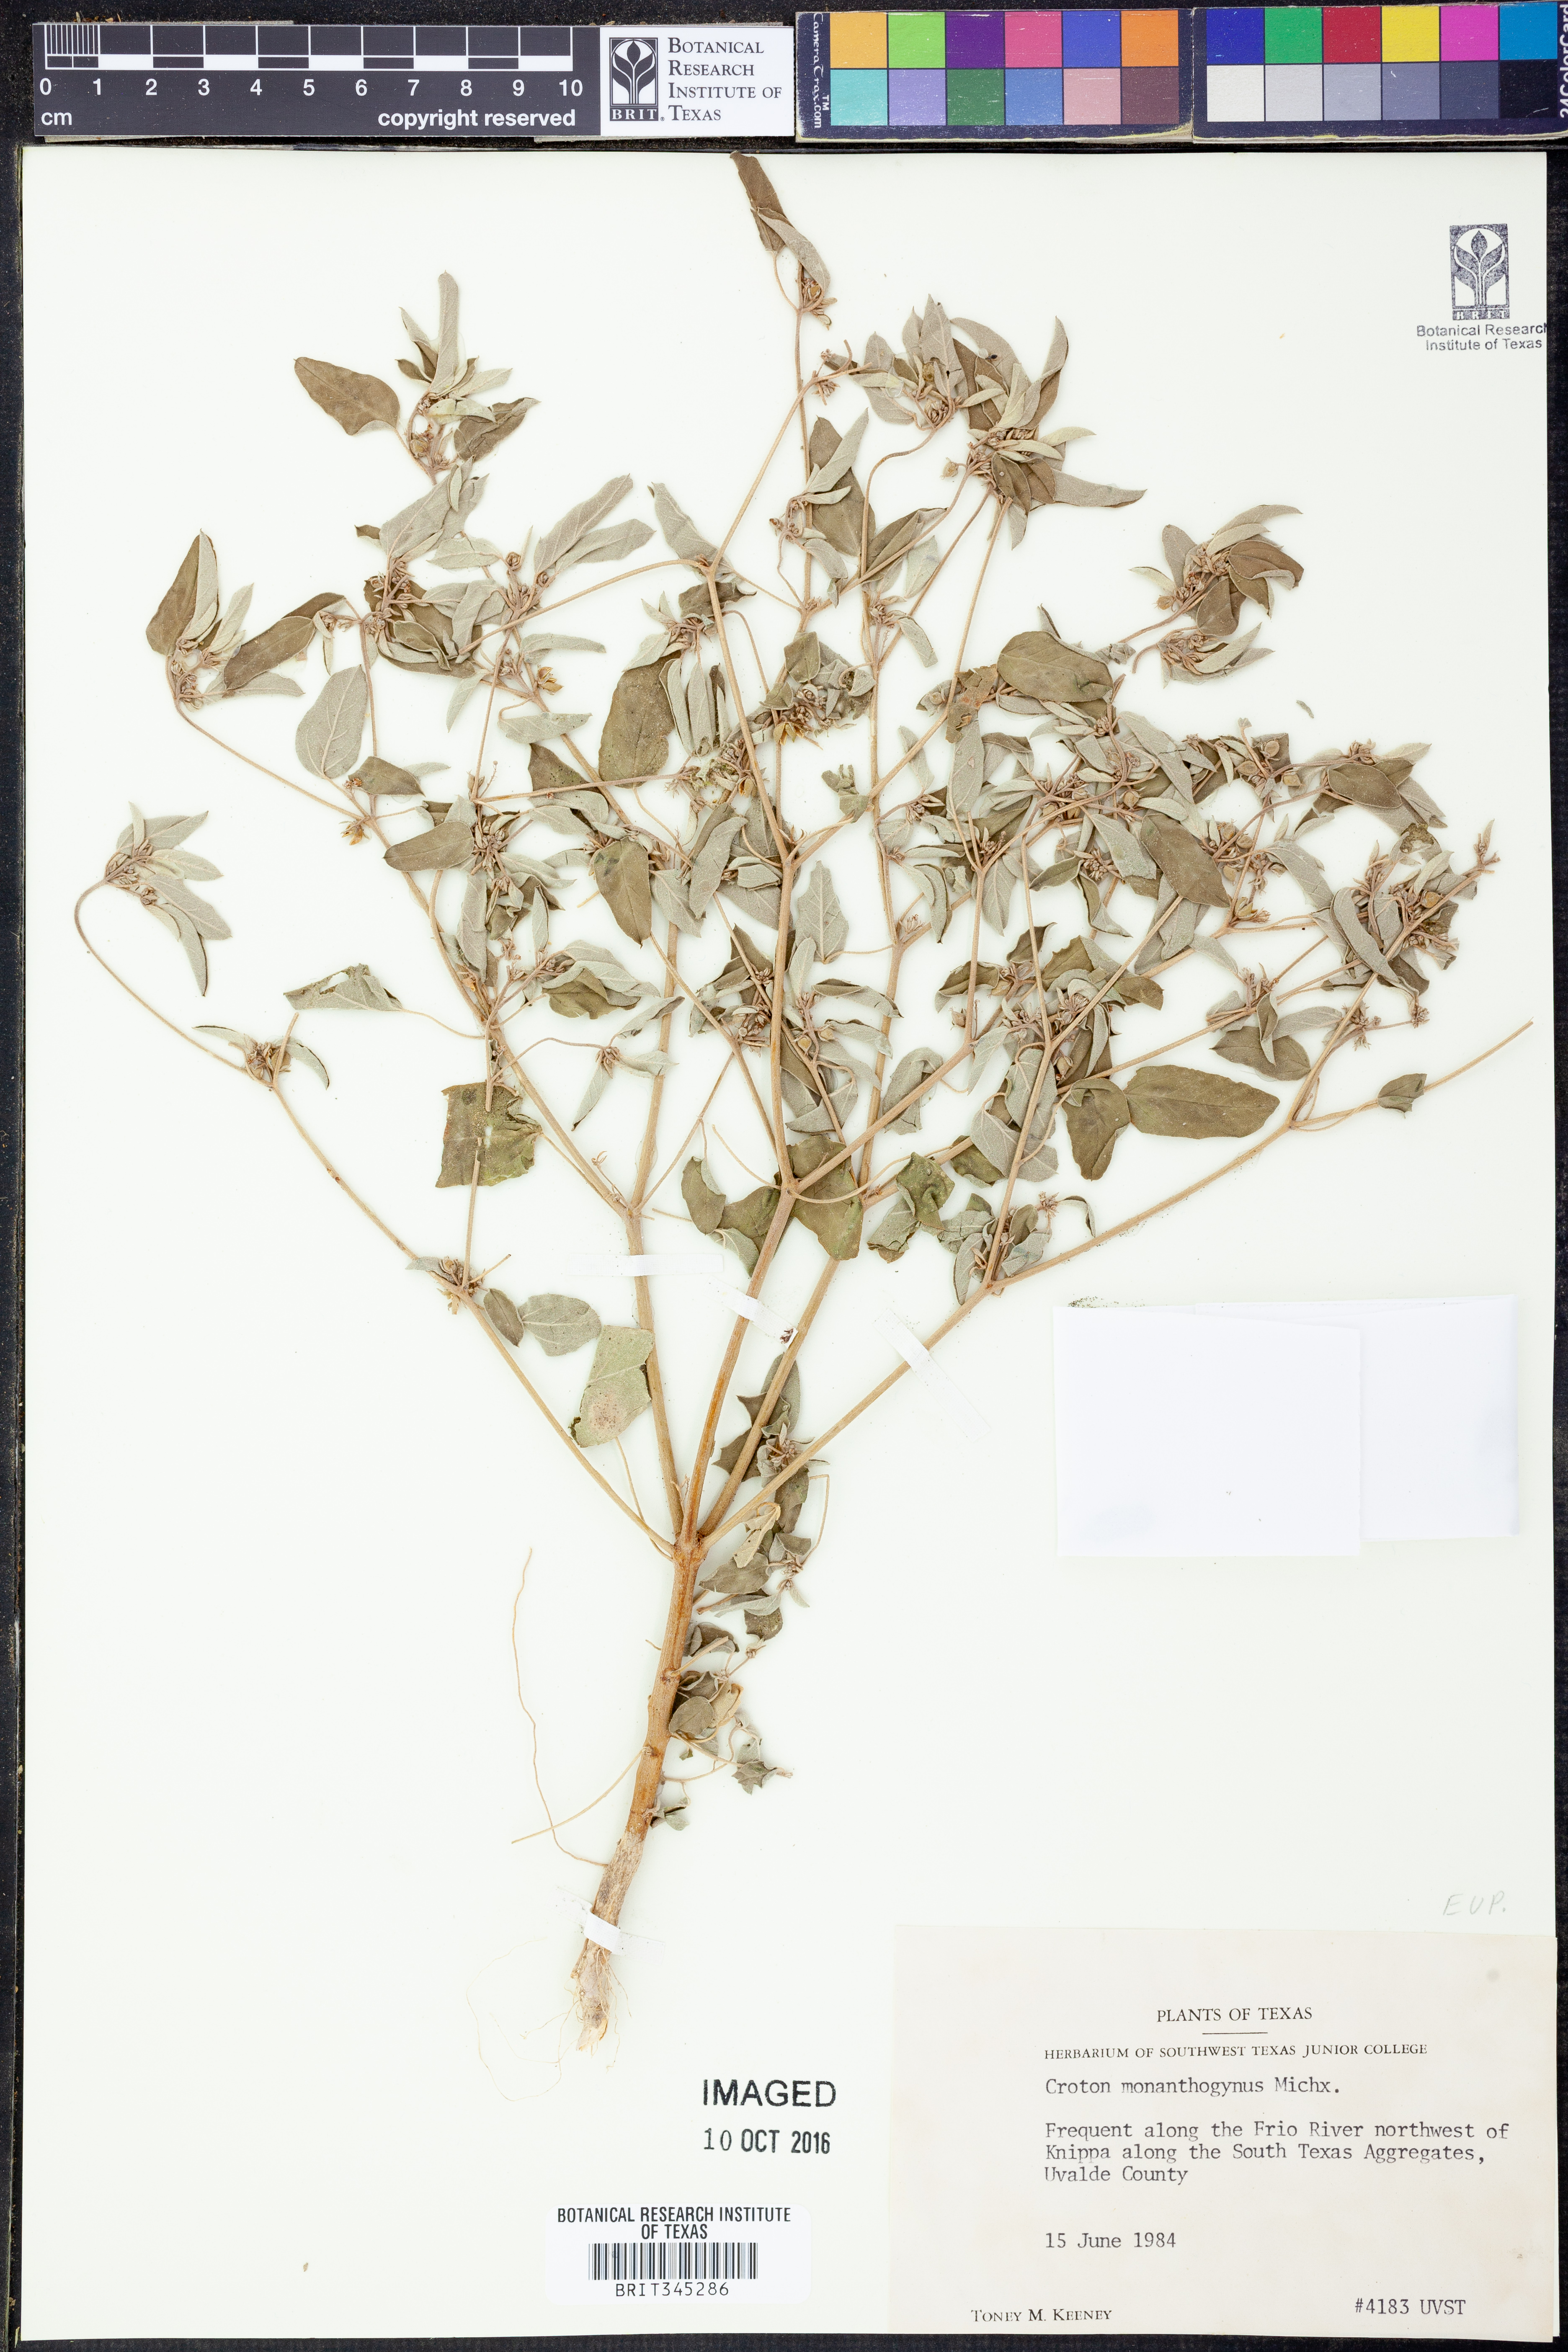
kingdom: Plantae
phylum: Tracheophyta
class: Magnoliopsida
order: Malpighiales
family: Euphorbiaceae
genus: Croton
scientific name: Croton monanthogynus
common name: One-seed croton
